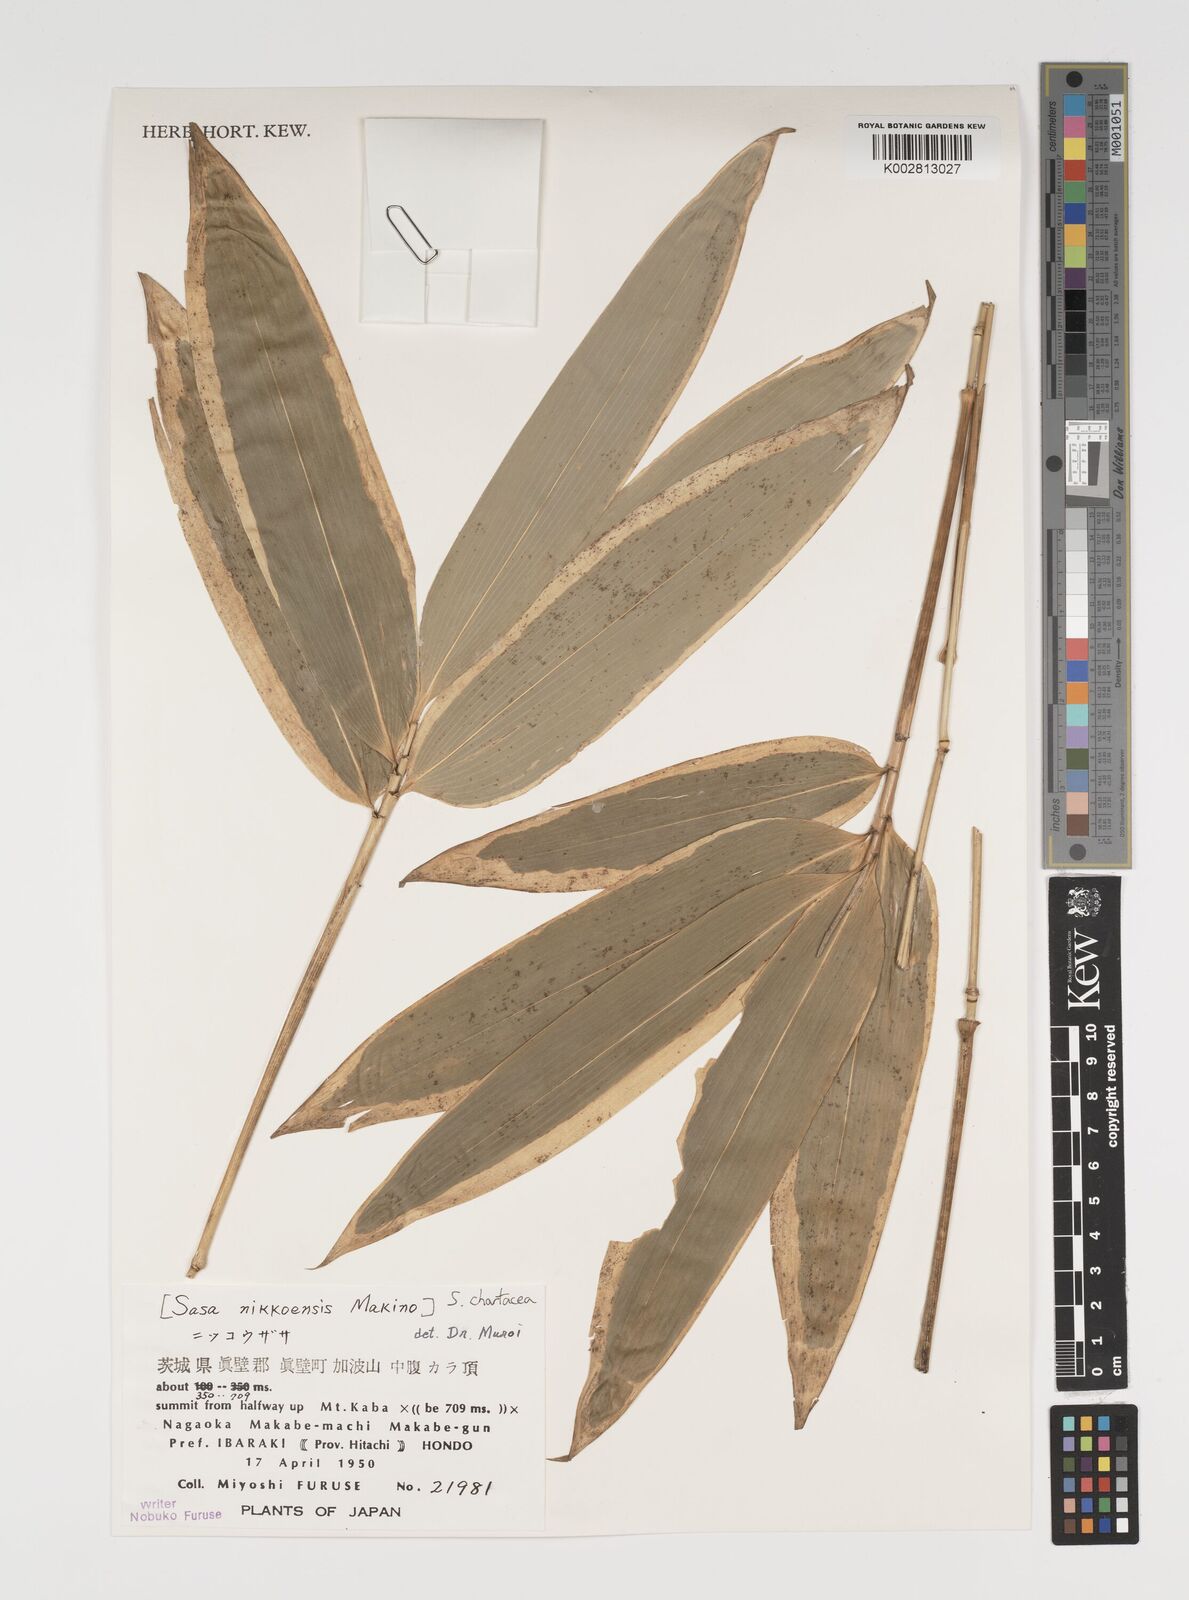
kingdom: Plantae
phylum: Tracheophyta
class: Liliopsida
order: Poales
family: Poaceae
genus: Sasa
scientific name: Sasa chartacea
